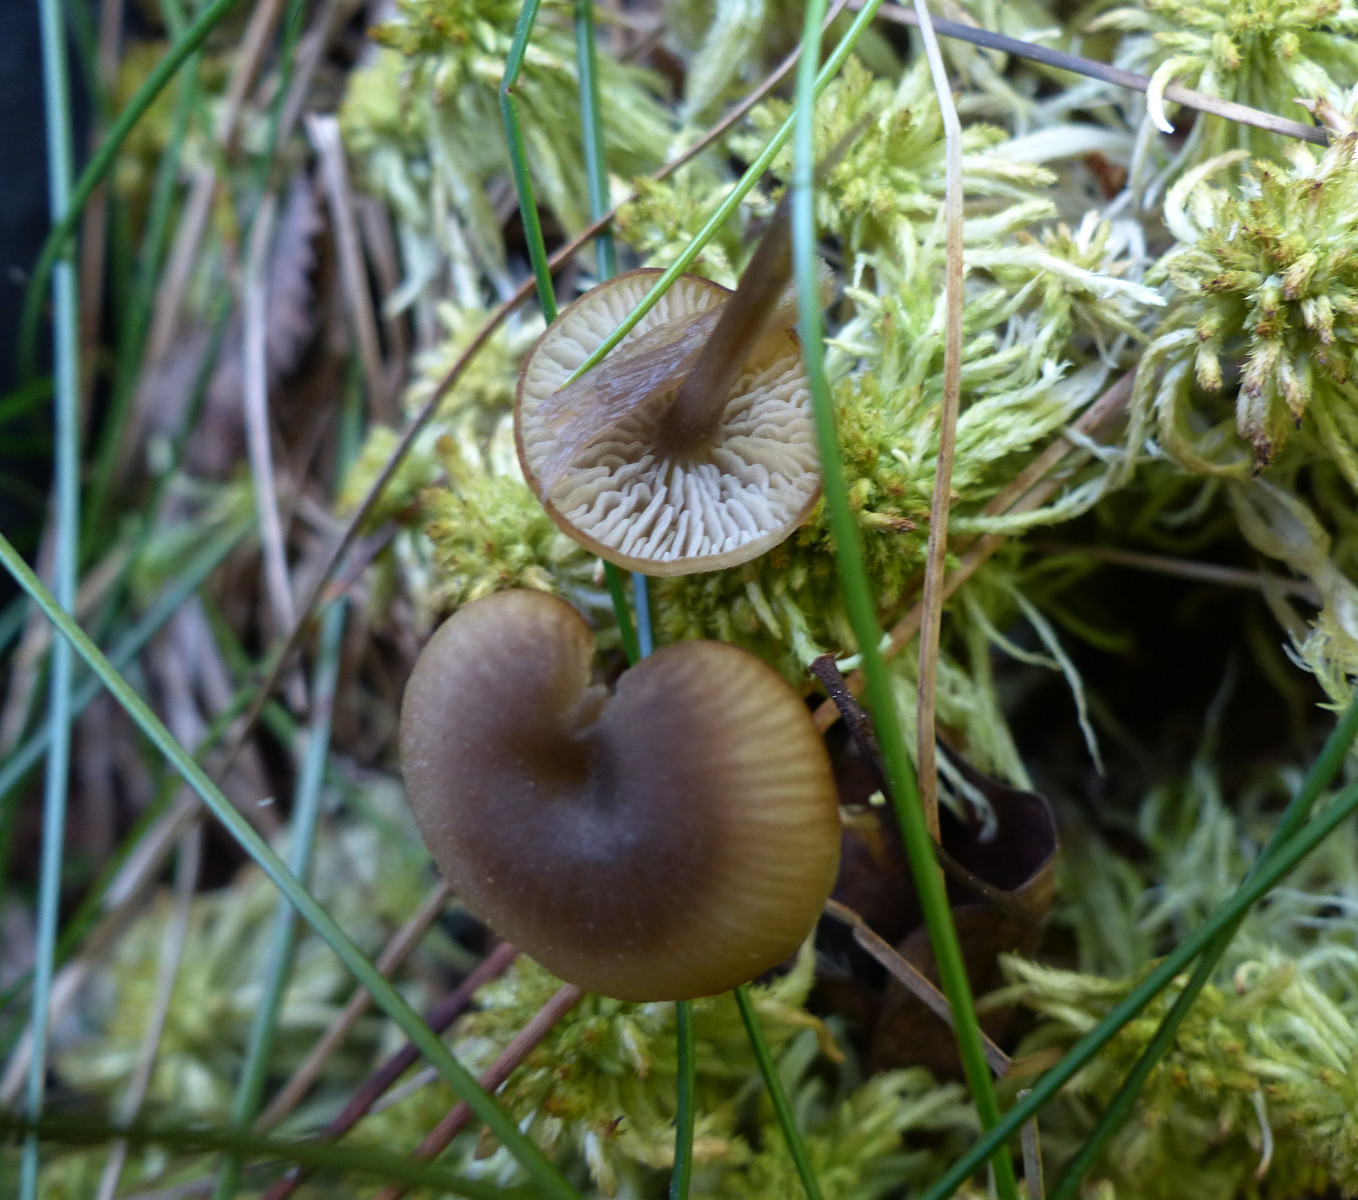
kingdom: Fungi
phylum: Basidiomycota
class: Agaricomycetes
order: Agaricales
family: Lyophyllaceae
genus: Sphagnurus
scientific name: Sphagnurus paluster
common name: tørvemos-gråblad
